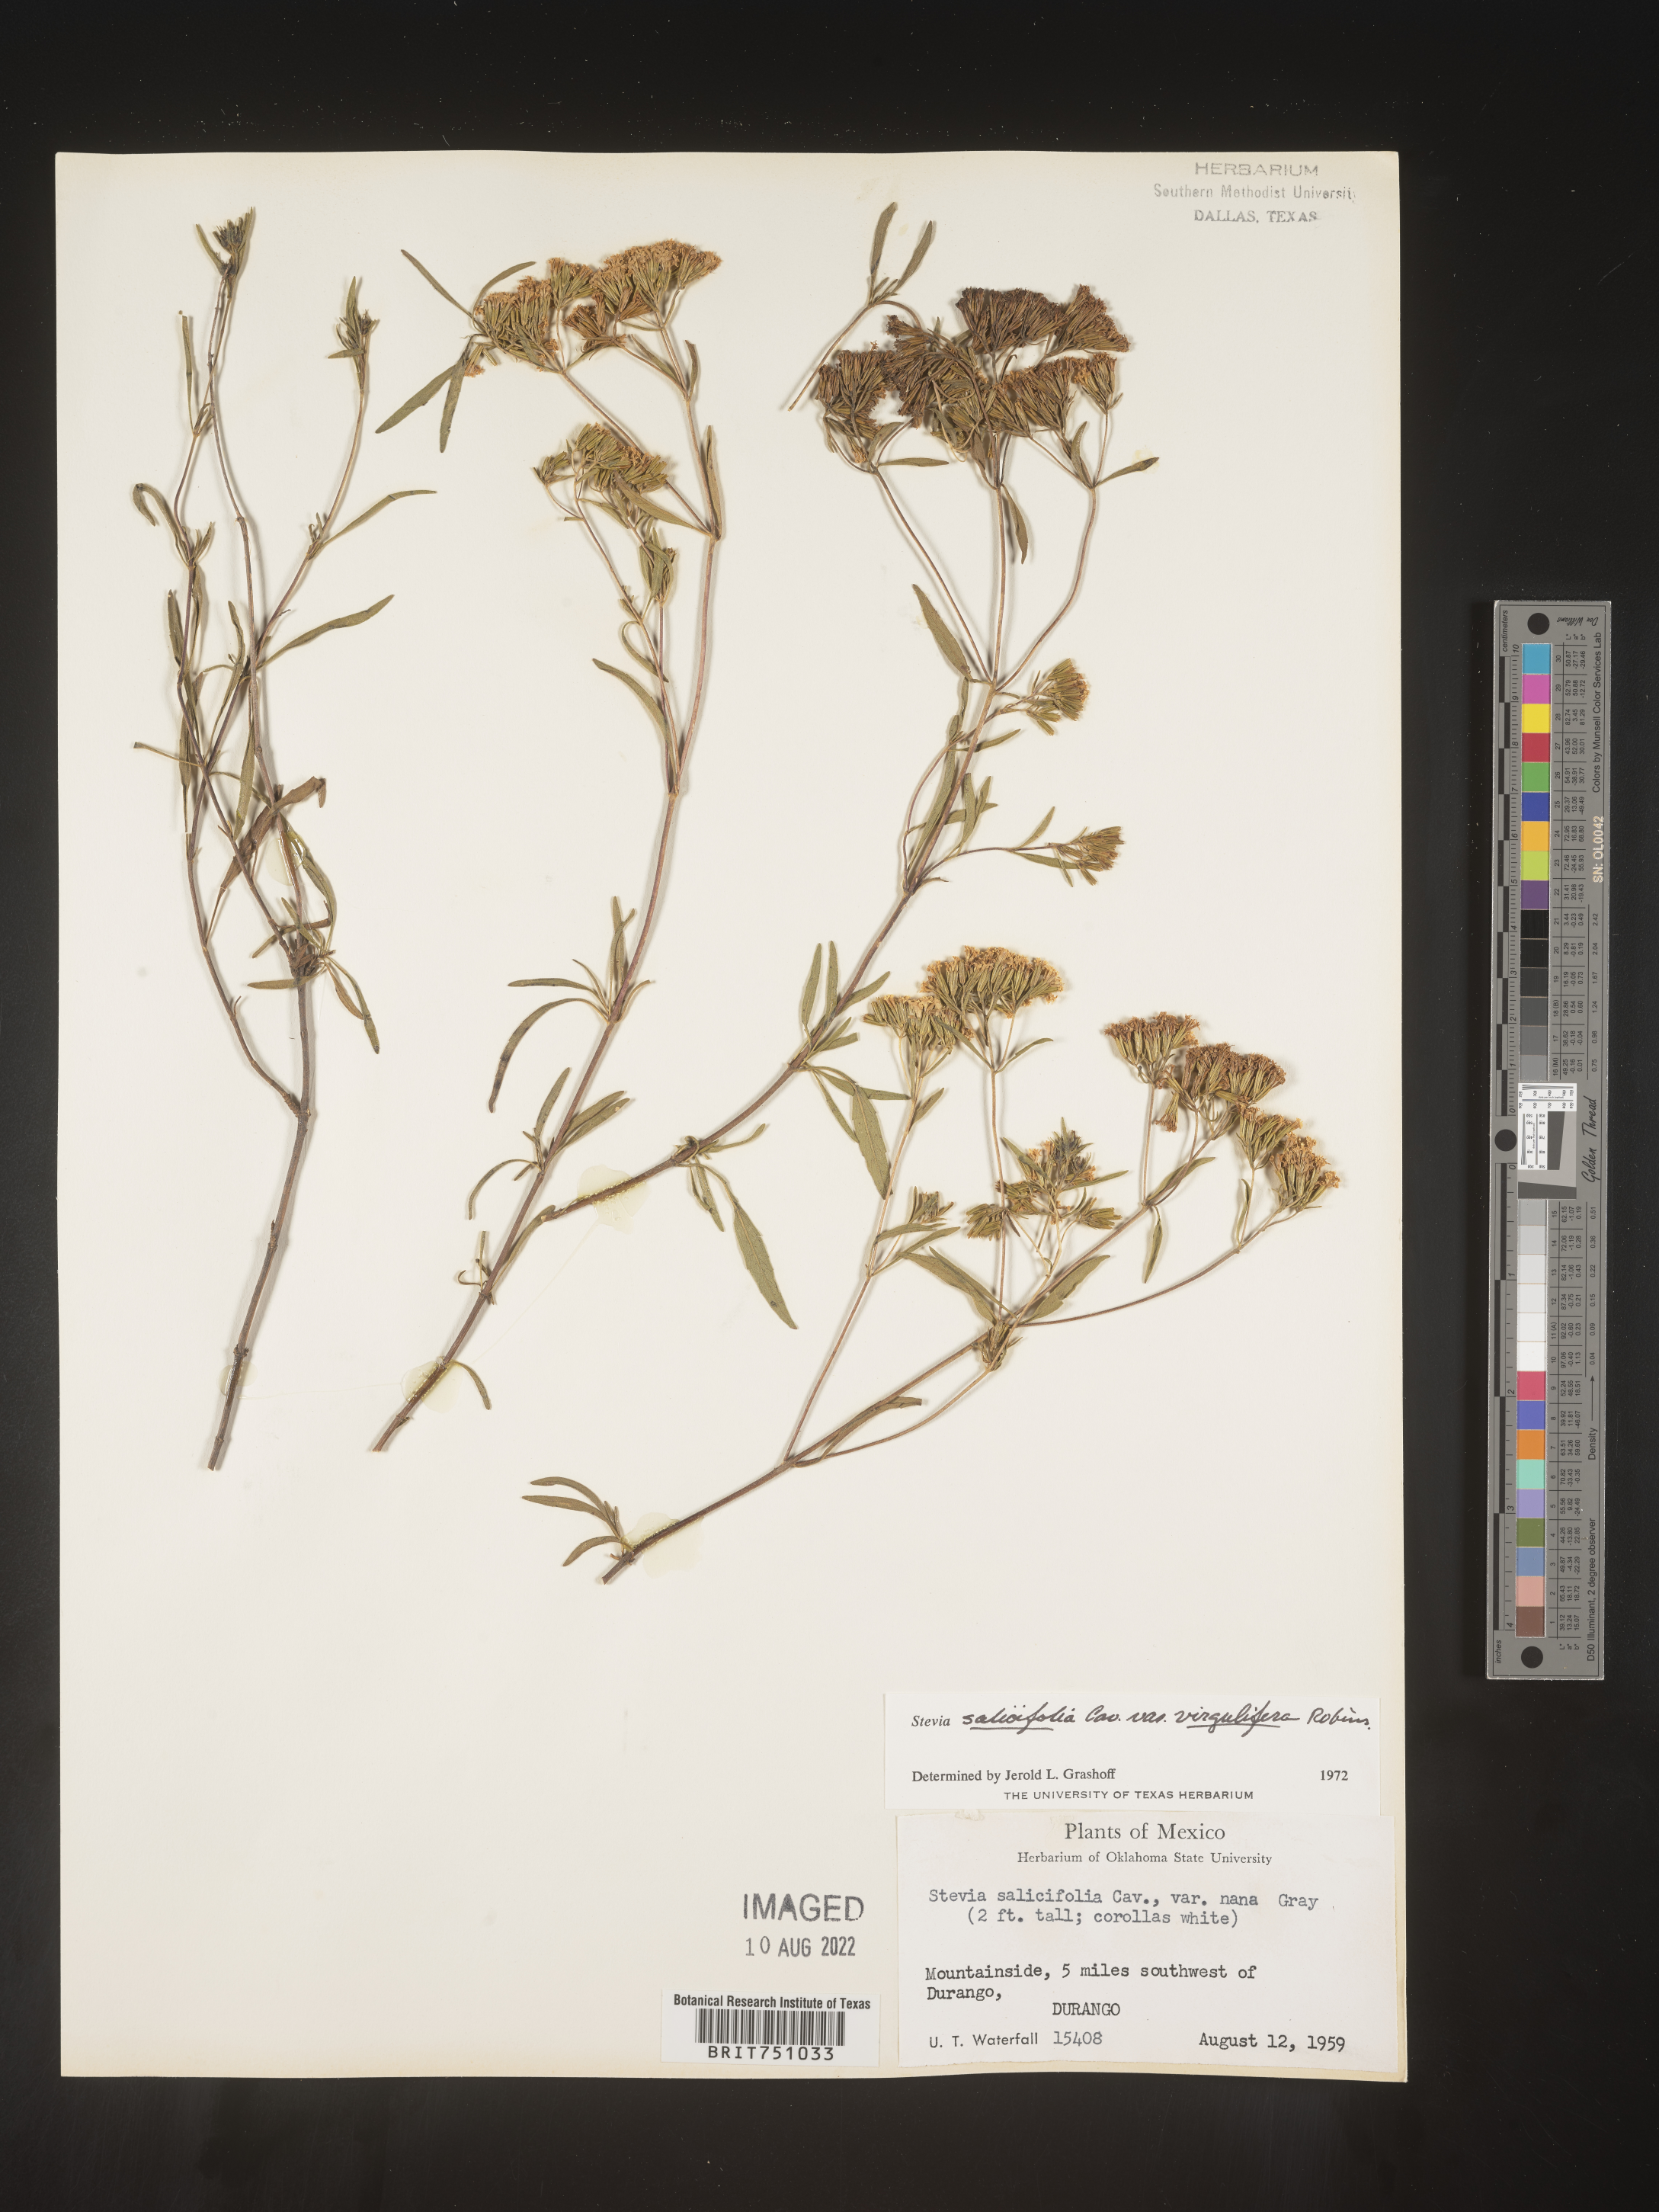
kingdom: Plantae
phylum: Tracheophyta
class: Magnoliopsida
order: Asterales
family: Asteraceae
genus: Stevia
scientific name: Stevia salicifolia
